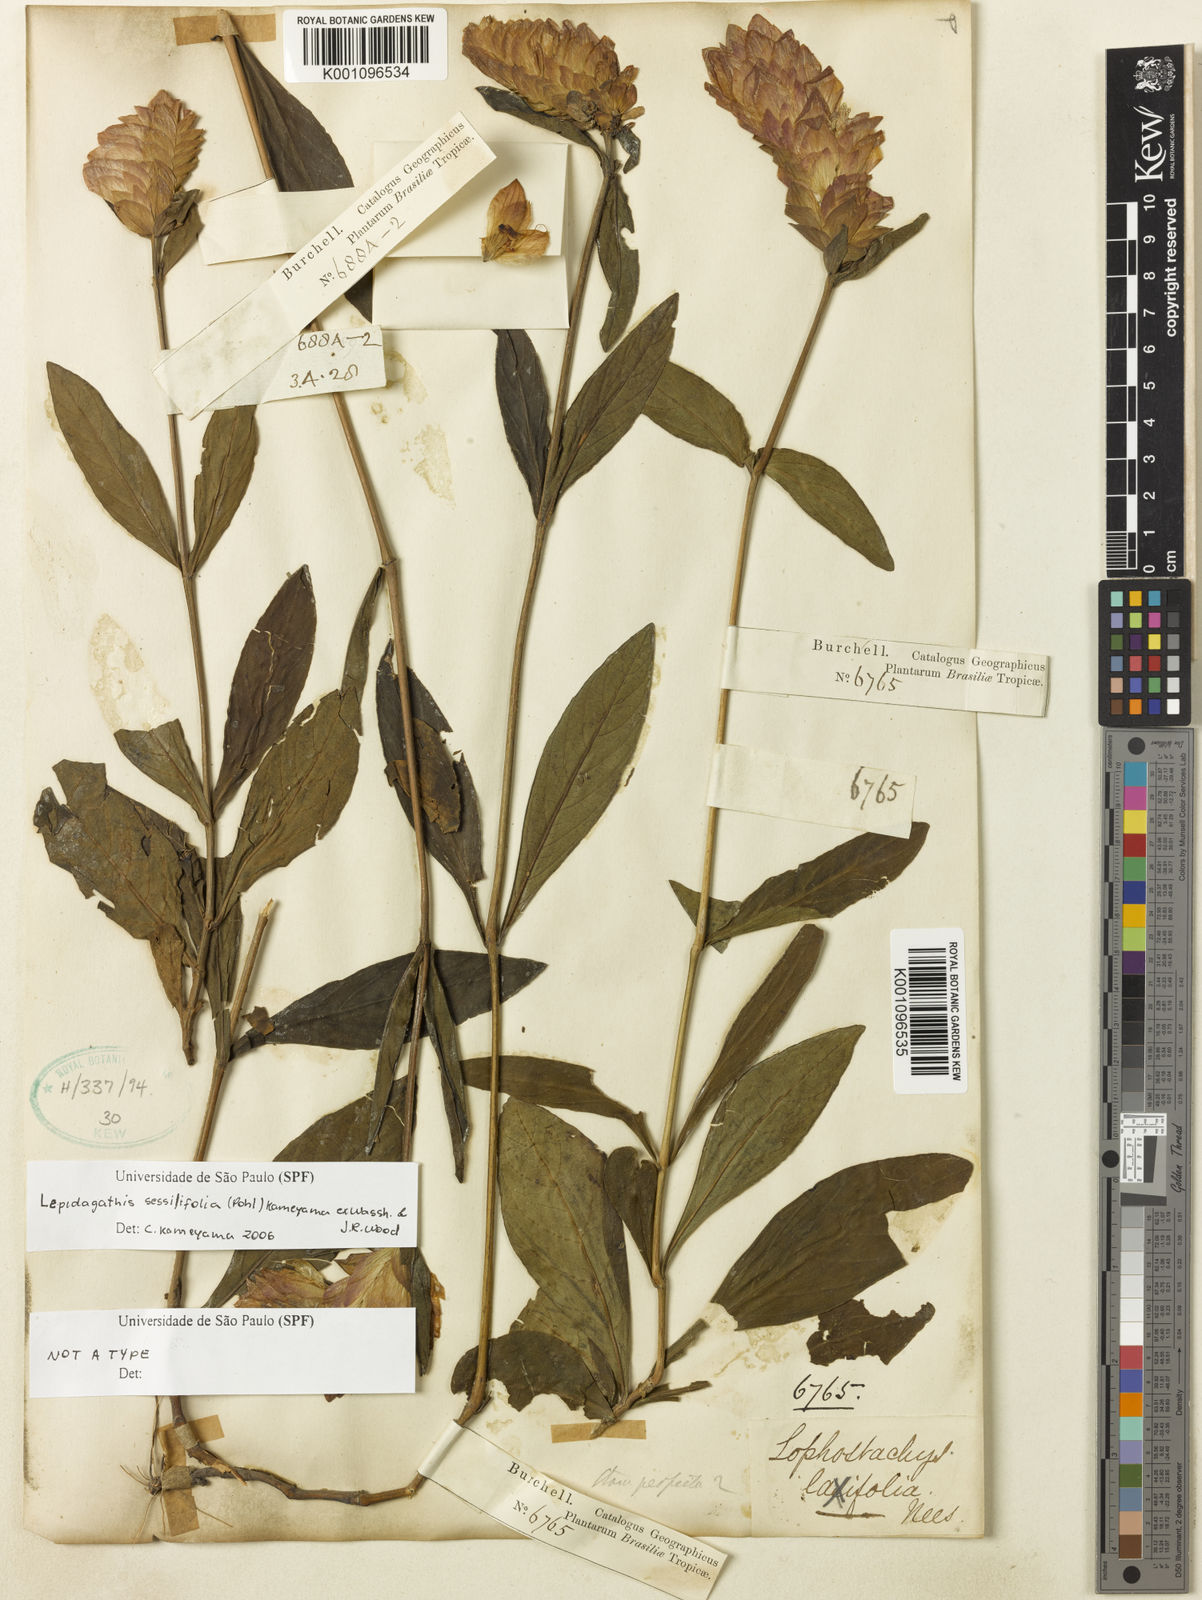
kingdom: Plantae
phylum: Tracheophyta
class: Magnoliopsida
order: Lamiales
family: Acanthaceae
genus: Lepidagathis
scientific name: Lepidagathis sessilifolia
